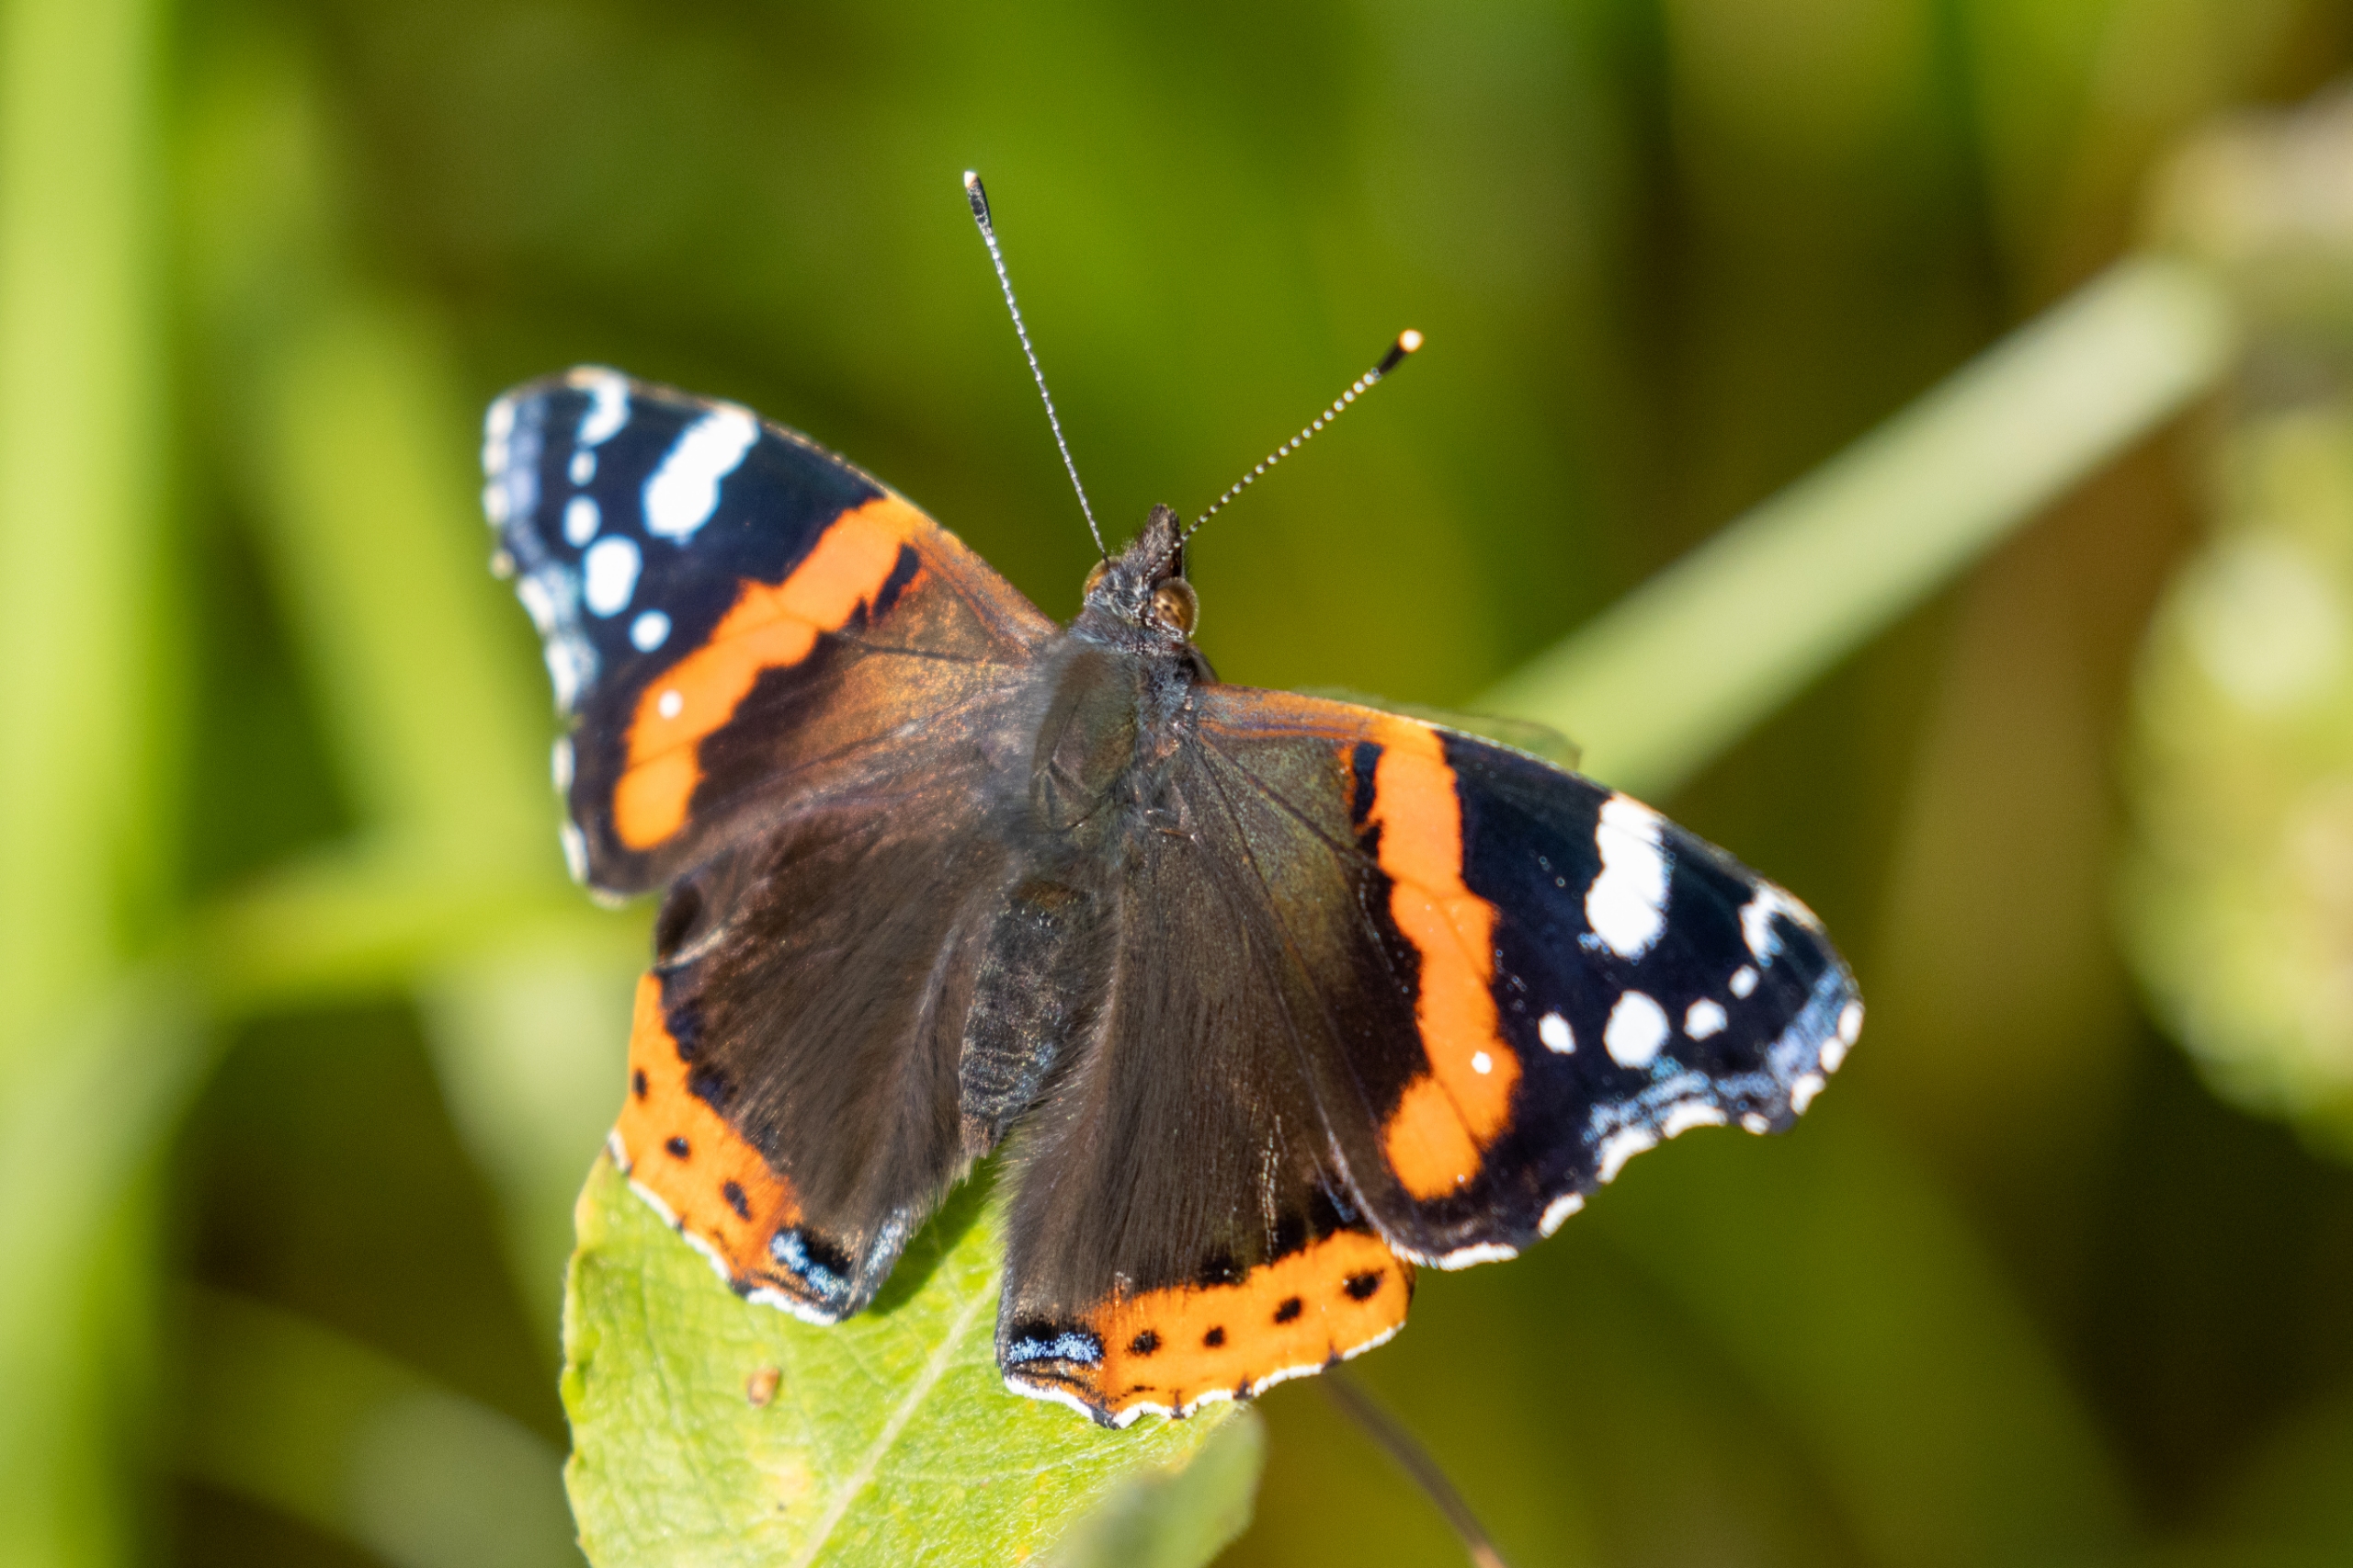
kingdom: Animalia
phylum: Arthropoda
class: Insecta
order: Lepidoptera
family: Nymphalidae
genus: Vanessa
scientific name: Vanessa atalanta
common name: Admiral
